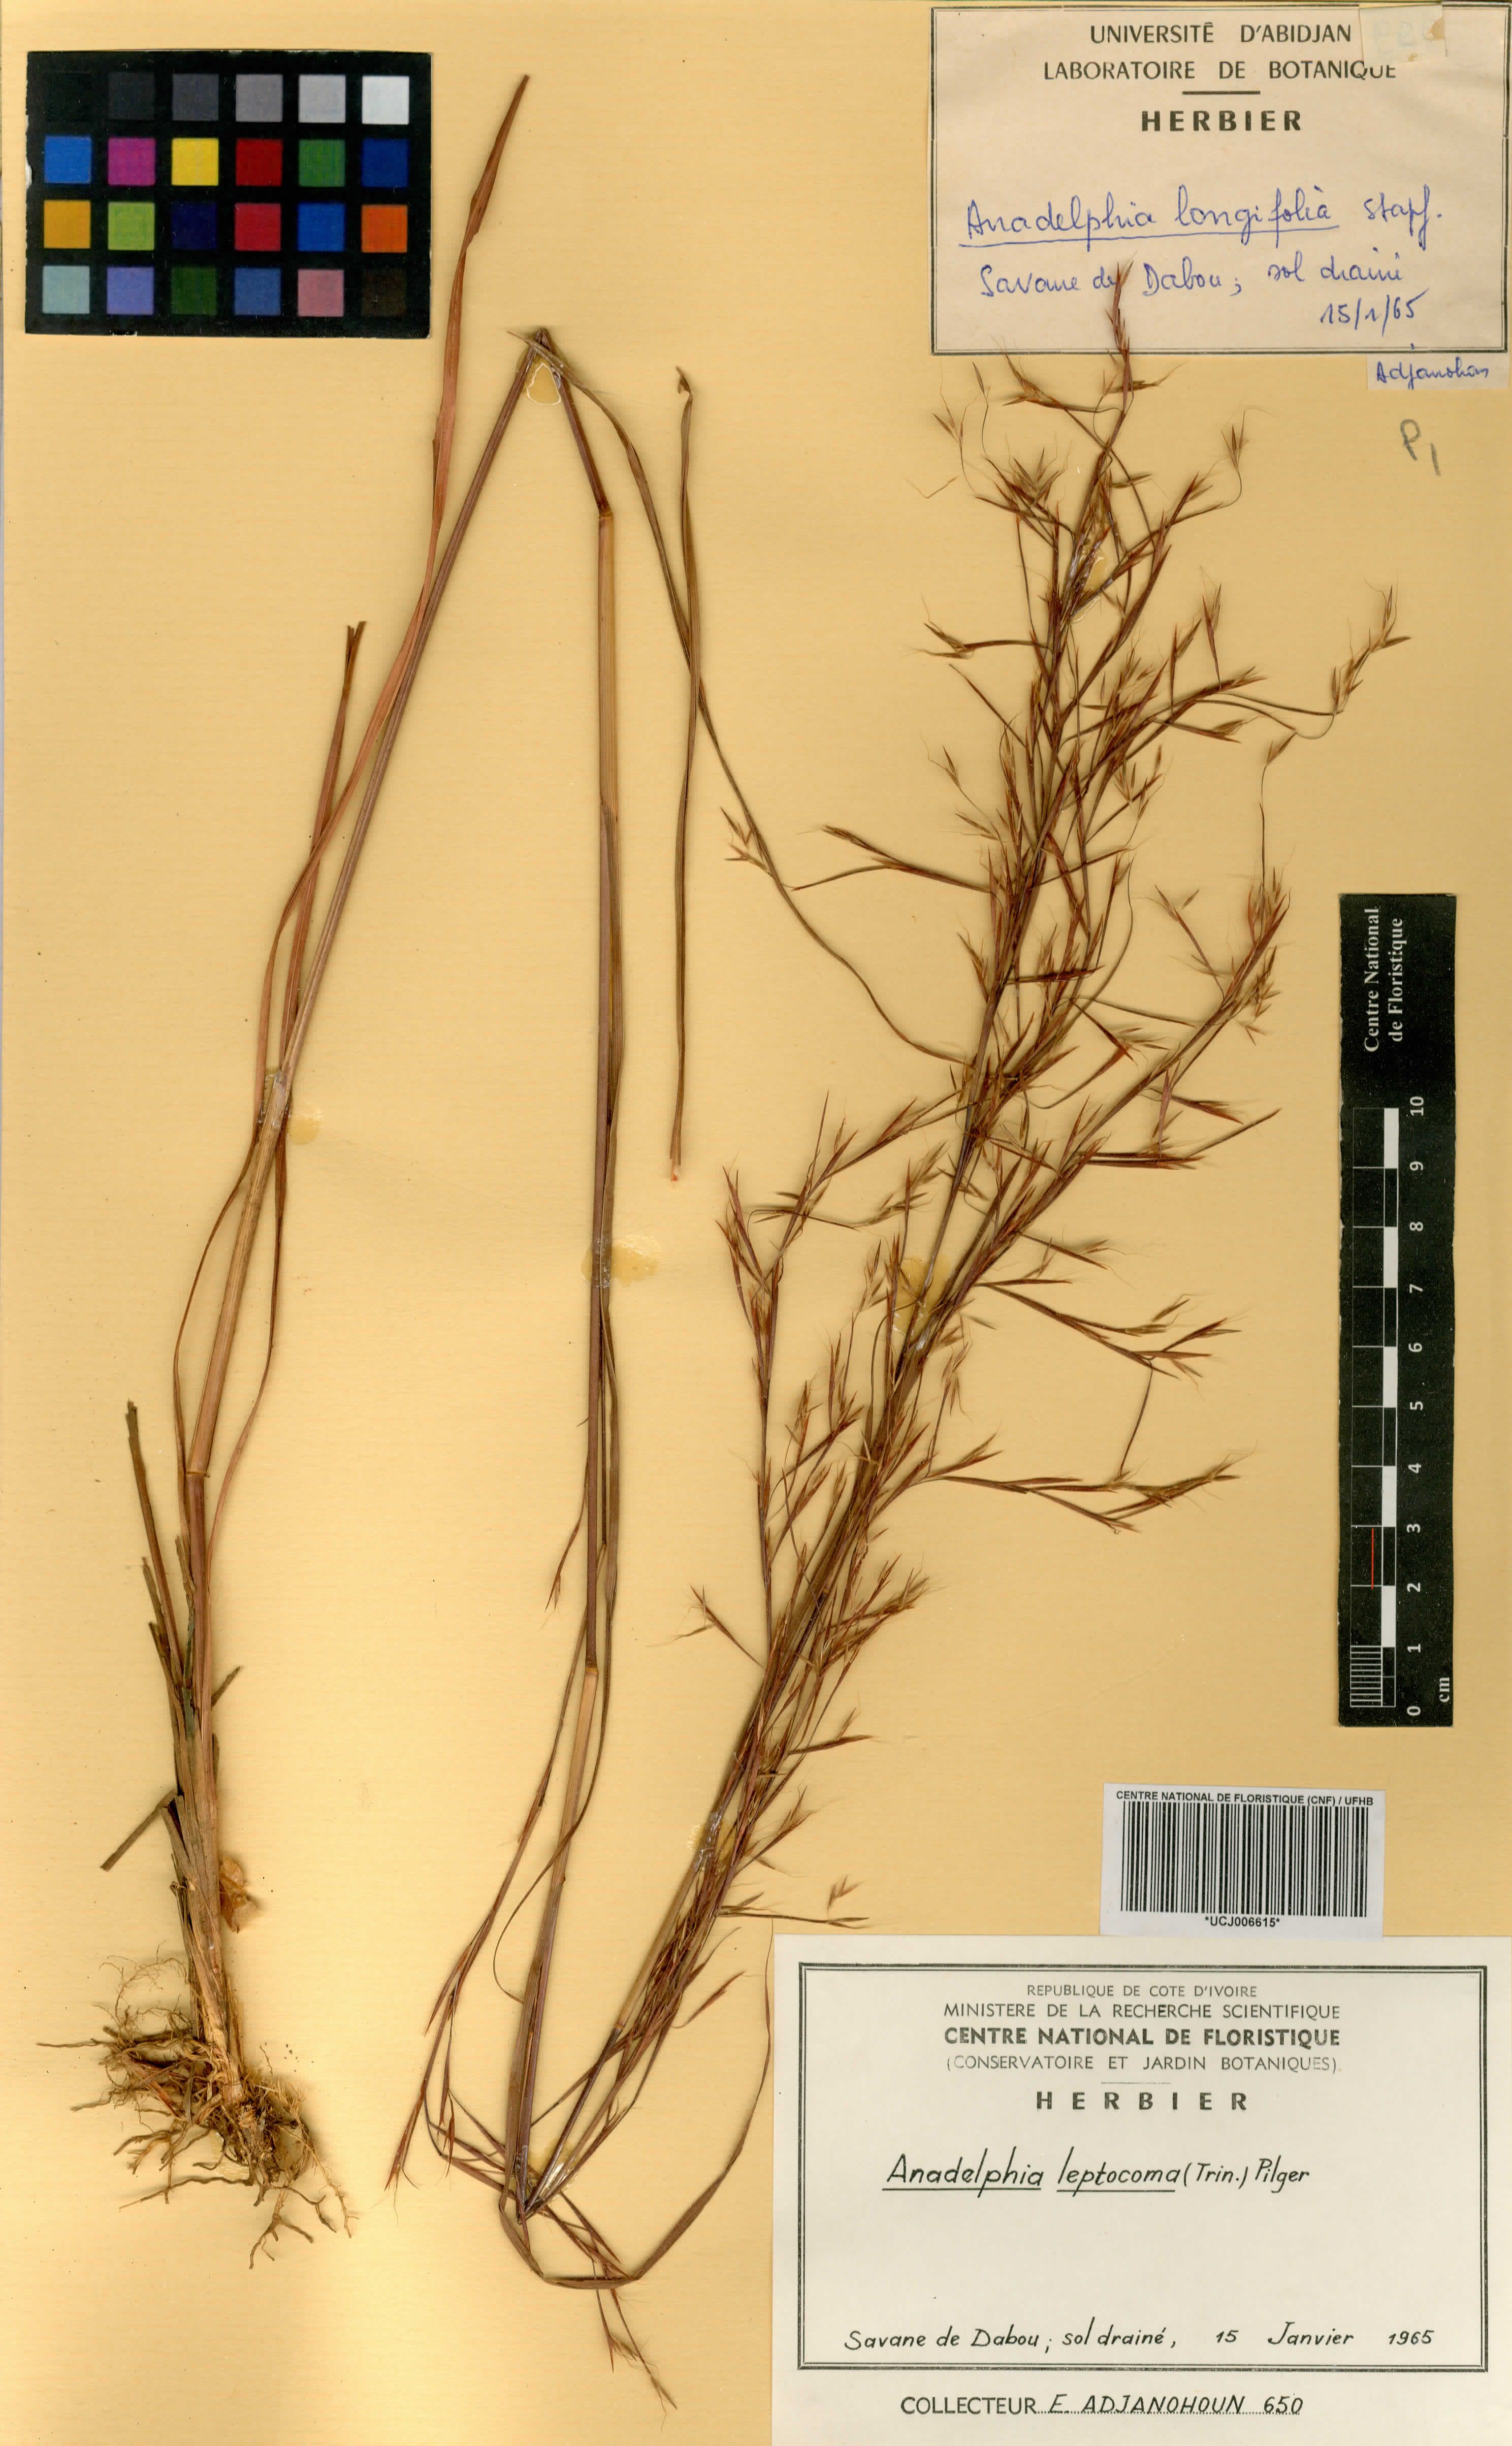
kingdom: Plantae
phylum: Tracheophyta
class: Liliopsida
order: Poales
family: Poaceae
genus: Anadelphia
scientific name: Anadelphia leptocoma
